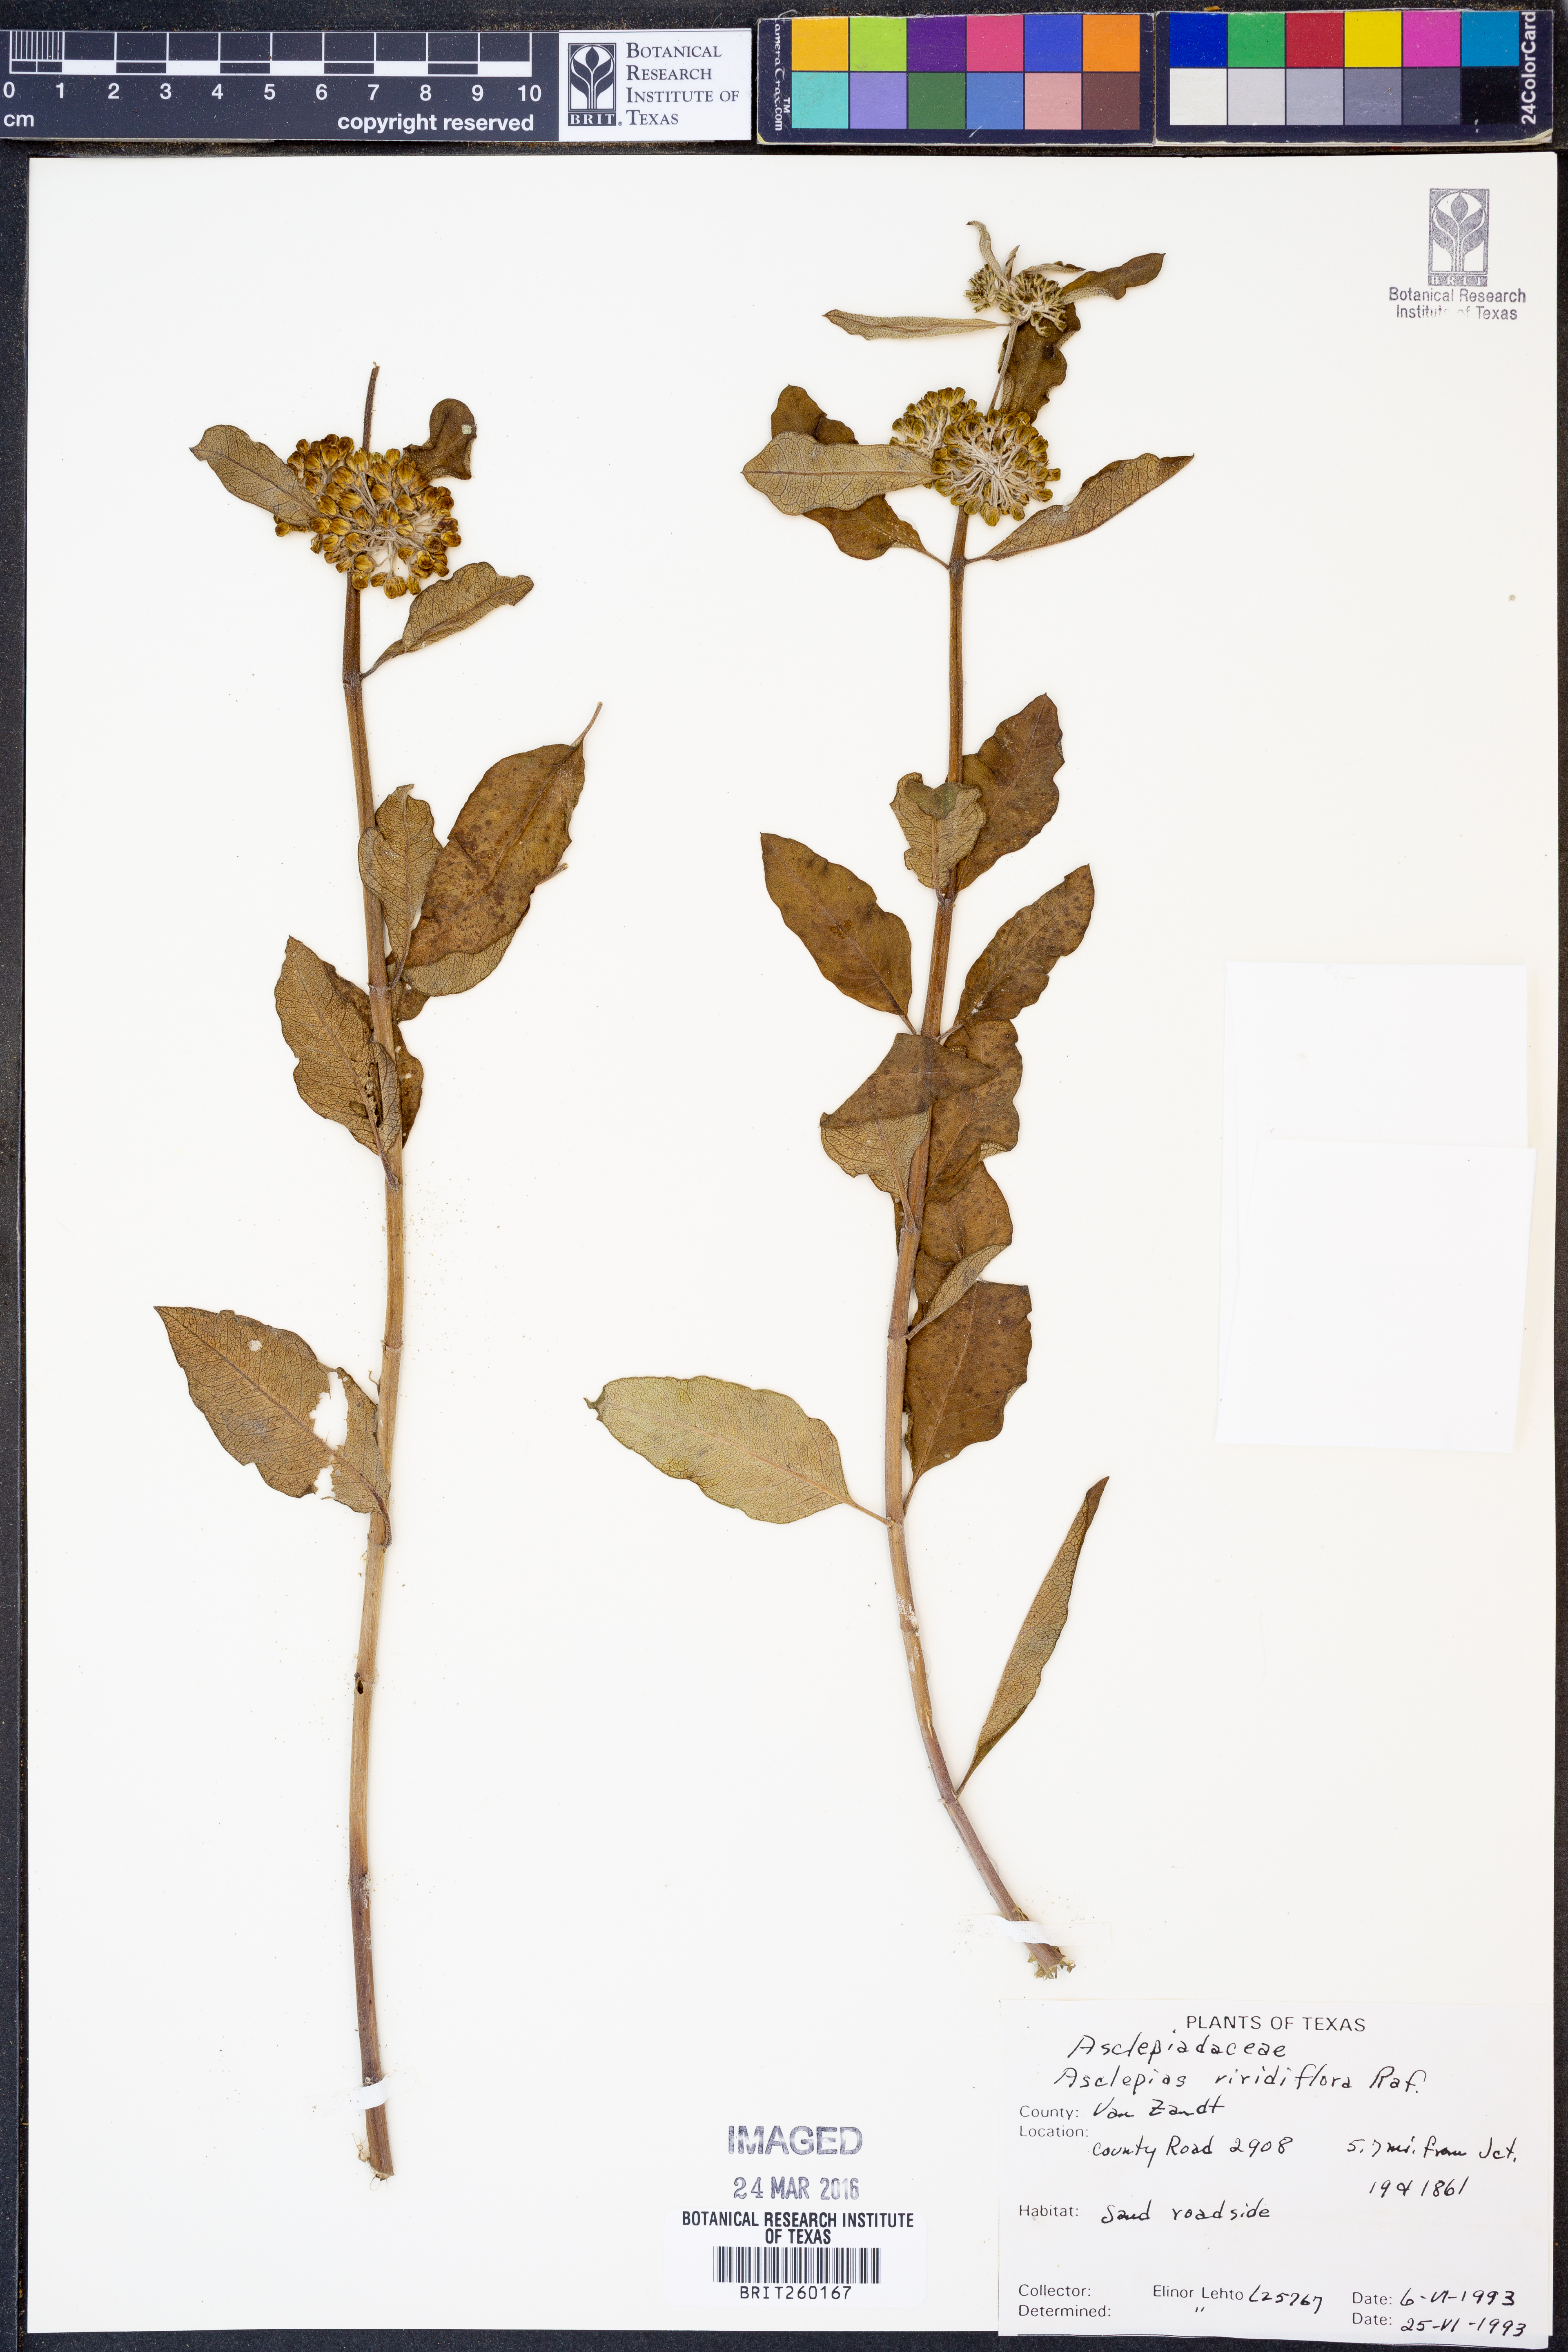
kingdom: Plantae
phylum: Tracheophyta
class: Magnoliopsida
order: Gentianales
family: Apocynaceae
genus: Asclepias
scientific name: Asclepias viridiflora
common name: Green comet milkweed
